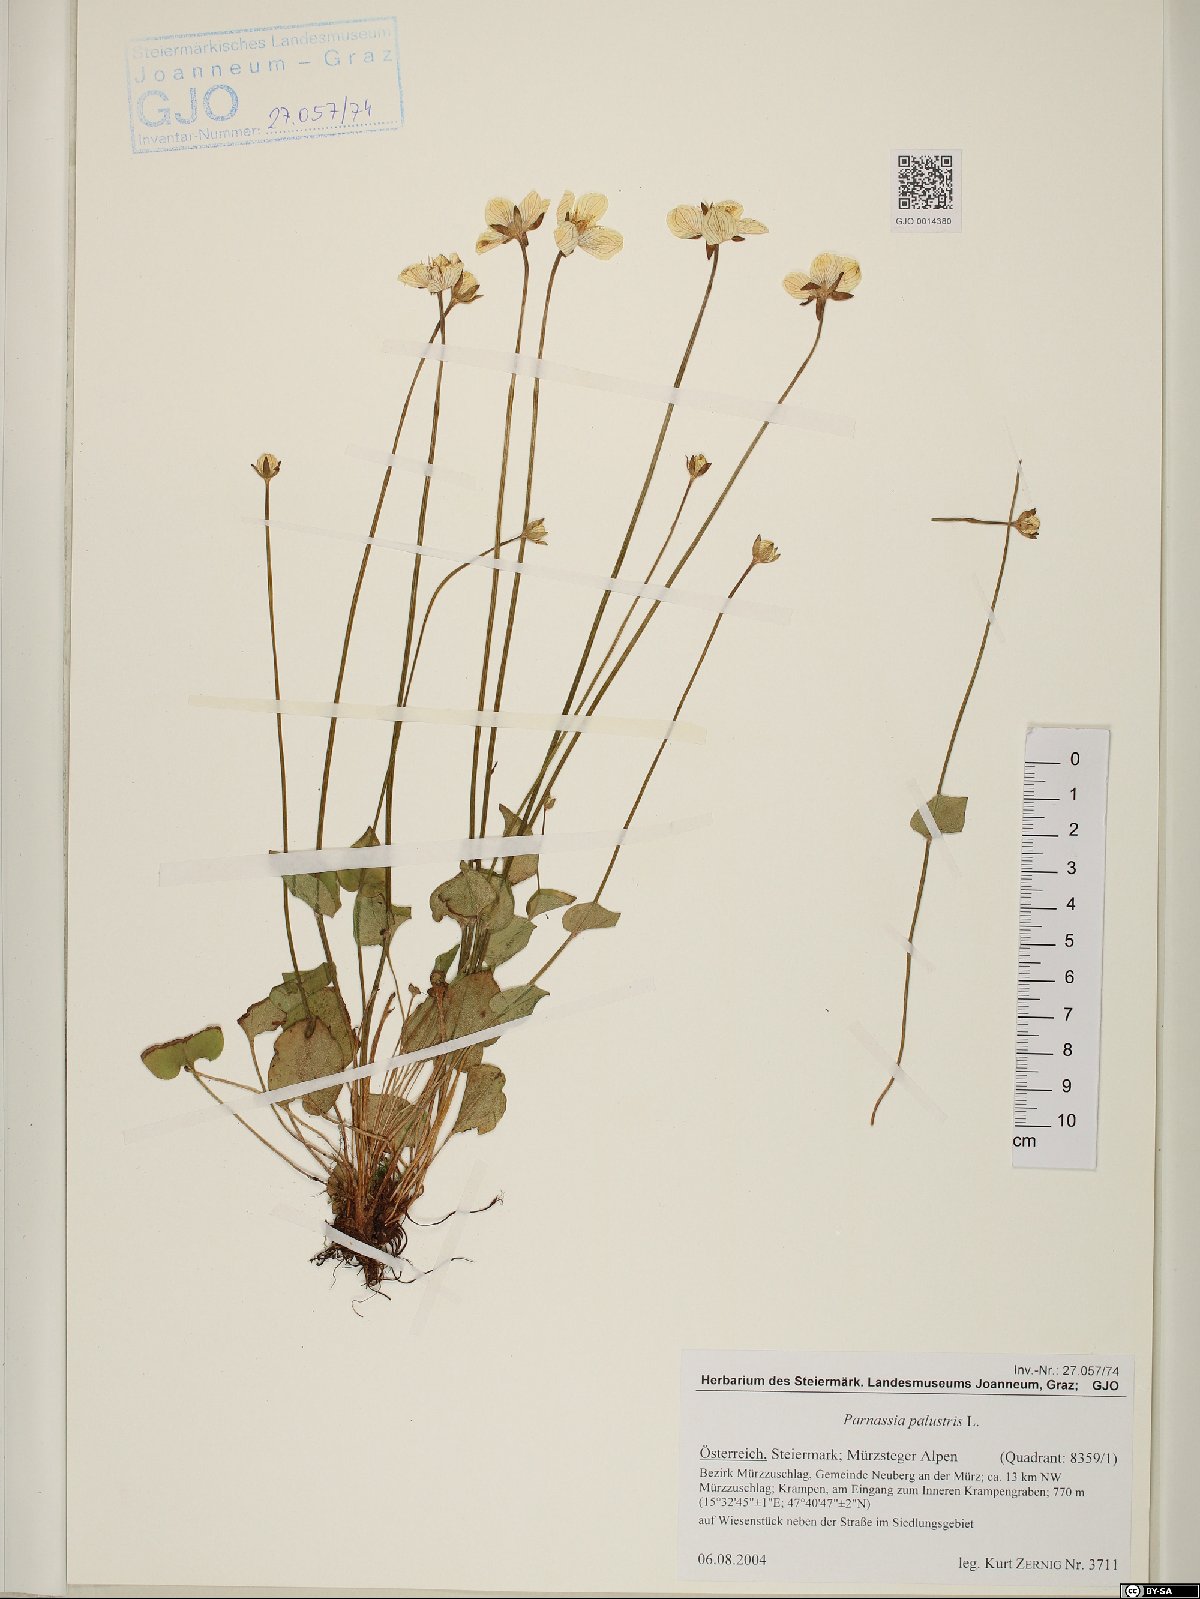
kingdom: Plantae
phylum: Tracheophyta
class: Magnoliopsida
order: Celastrales
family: Parnassiaceae
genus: Parnassia
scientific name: Parnassia palustris
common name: Grass-of-parnassus
